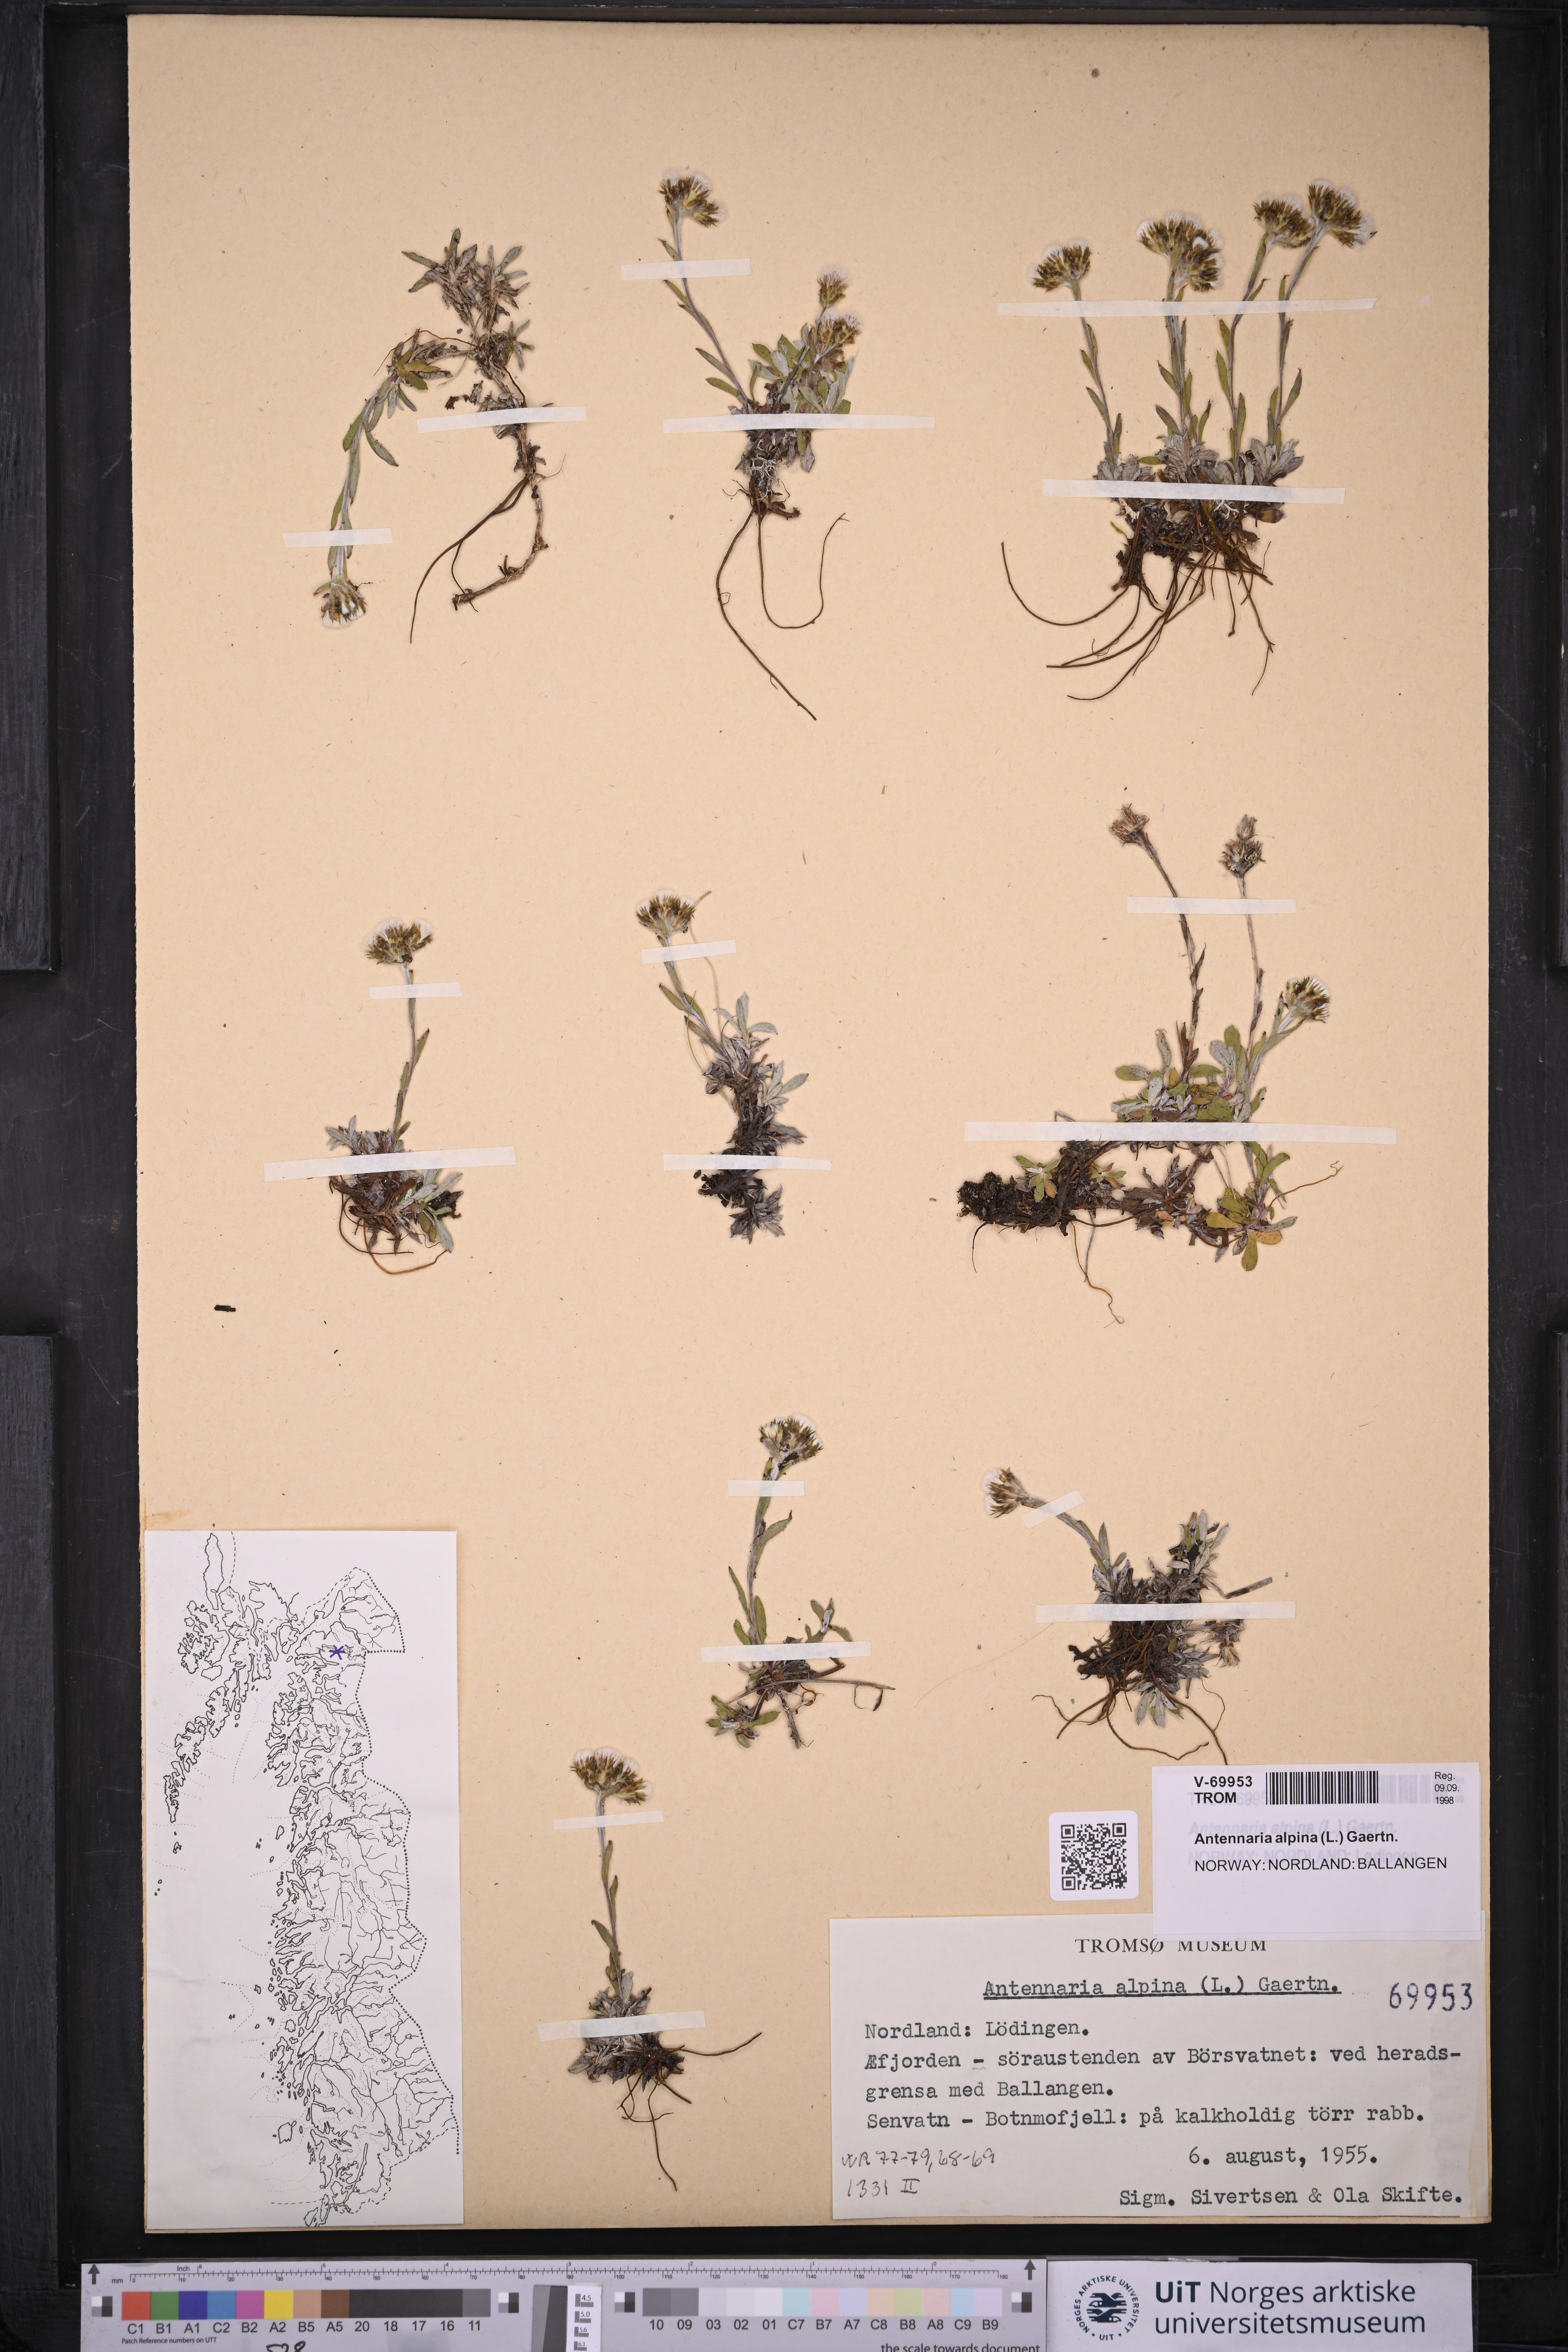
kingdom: Plantae
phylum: Tracheophyta
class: Magnoliopsida
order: Asterales
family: Asteraceae
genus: Antennaria
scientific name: Antennaria alpina
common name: Alpine pussytoes
